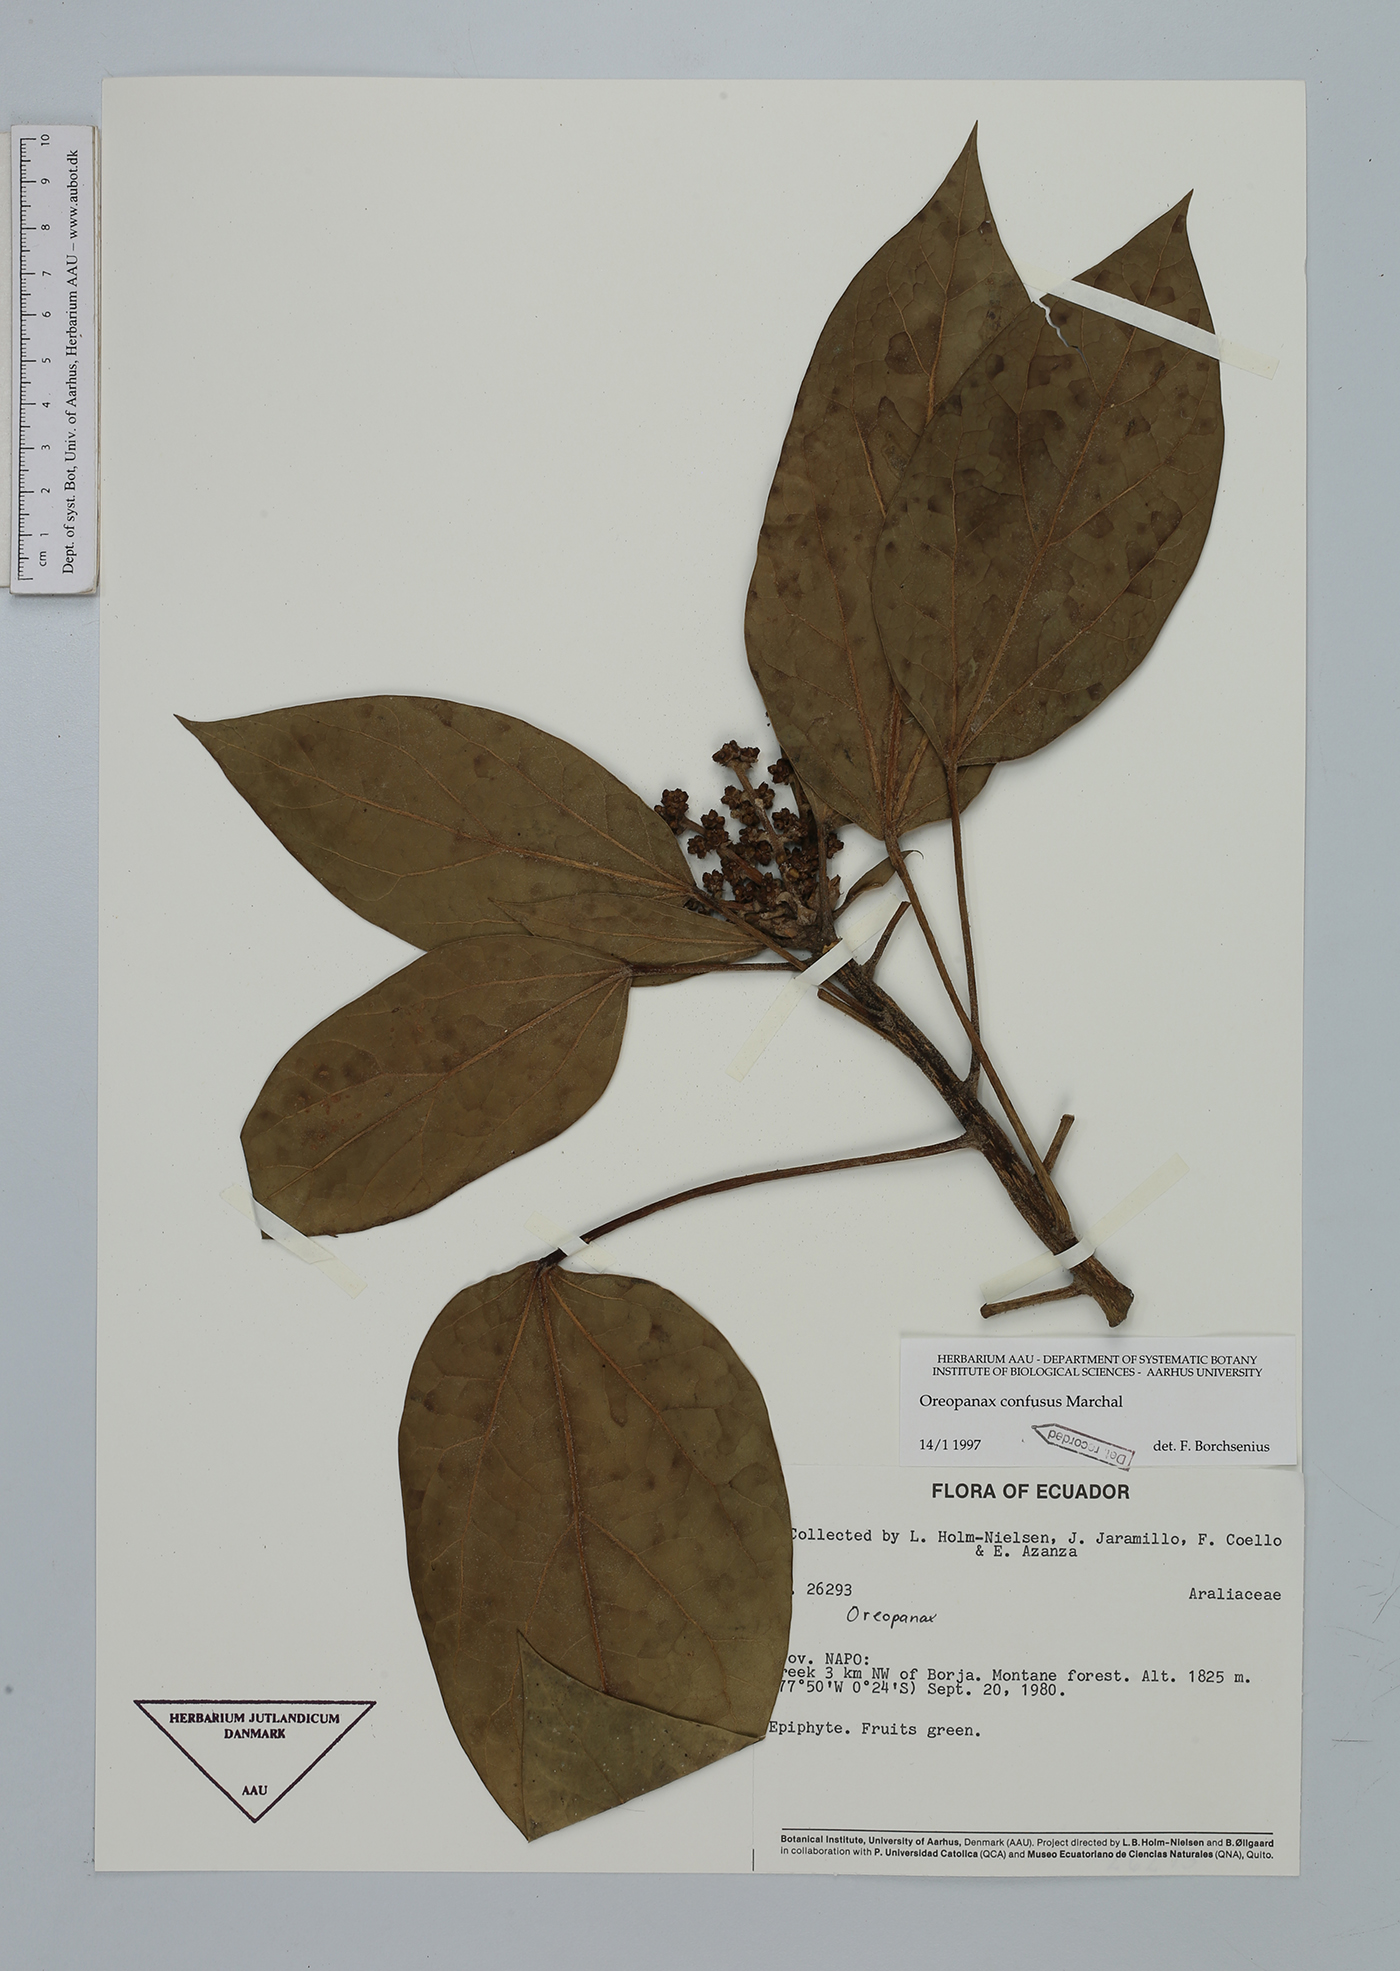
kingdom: Plantae
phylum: Tracheophyta
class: Magnoliopsida
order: Apiales
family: Araliaceae
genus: Oreopanax
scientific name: Oreopanax confusus
